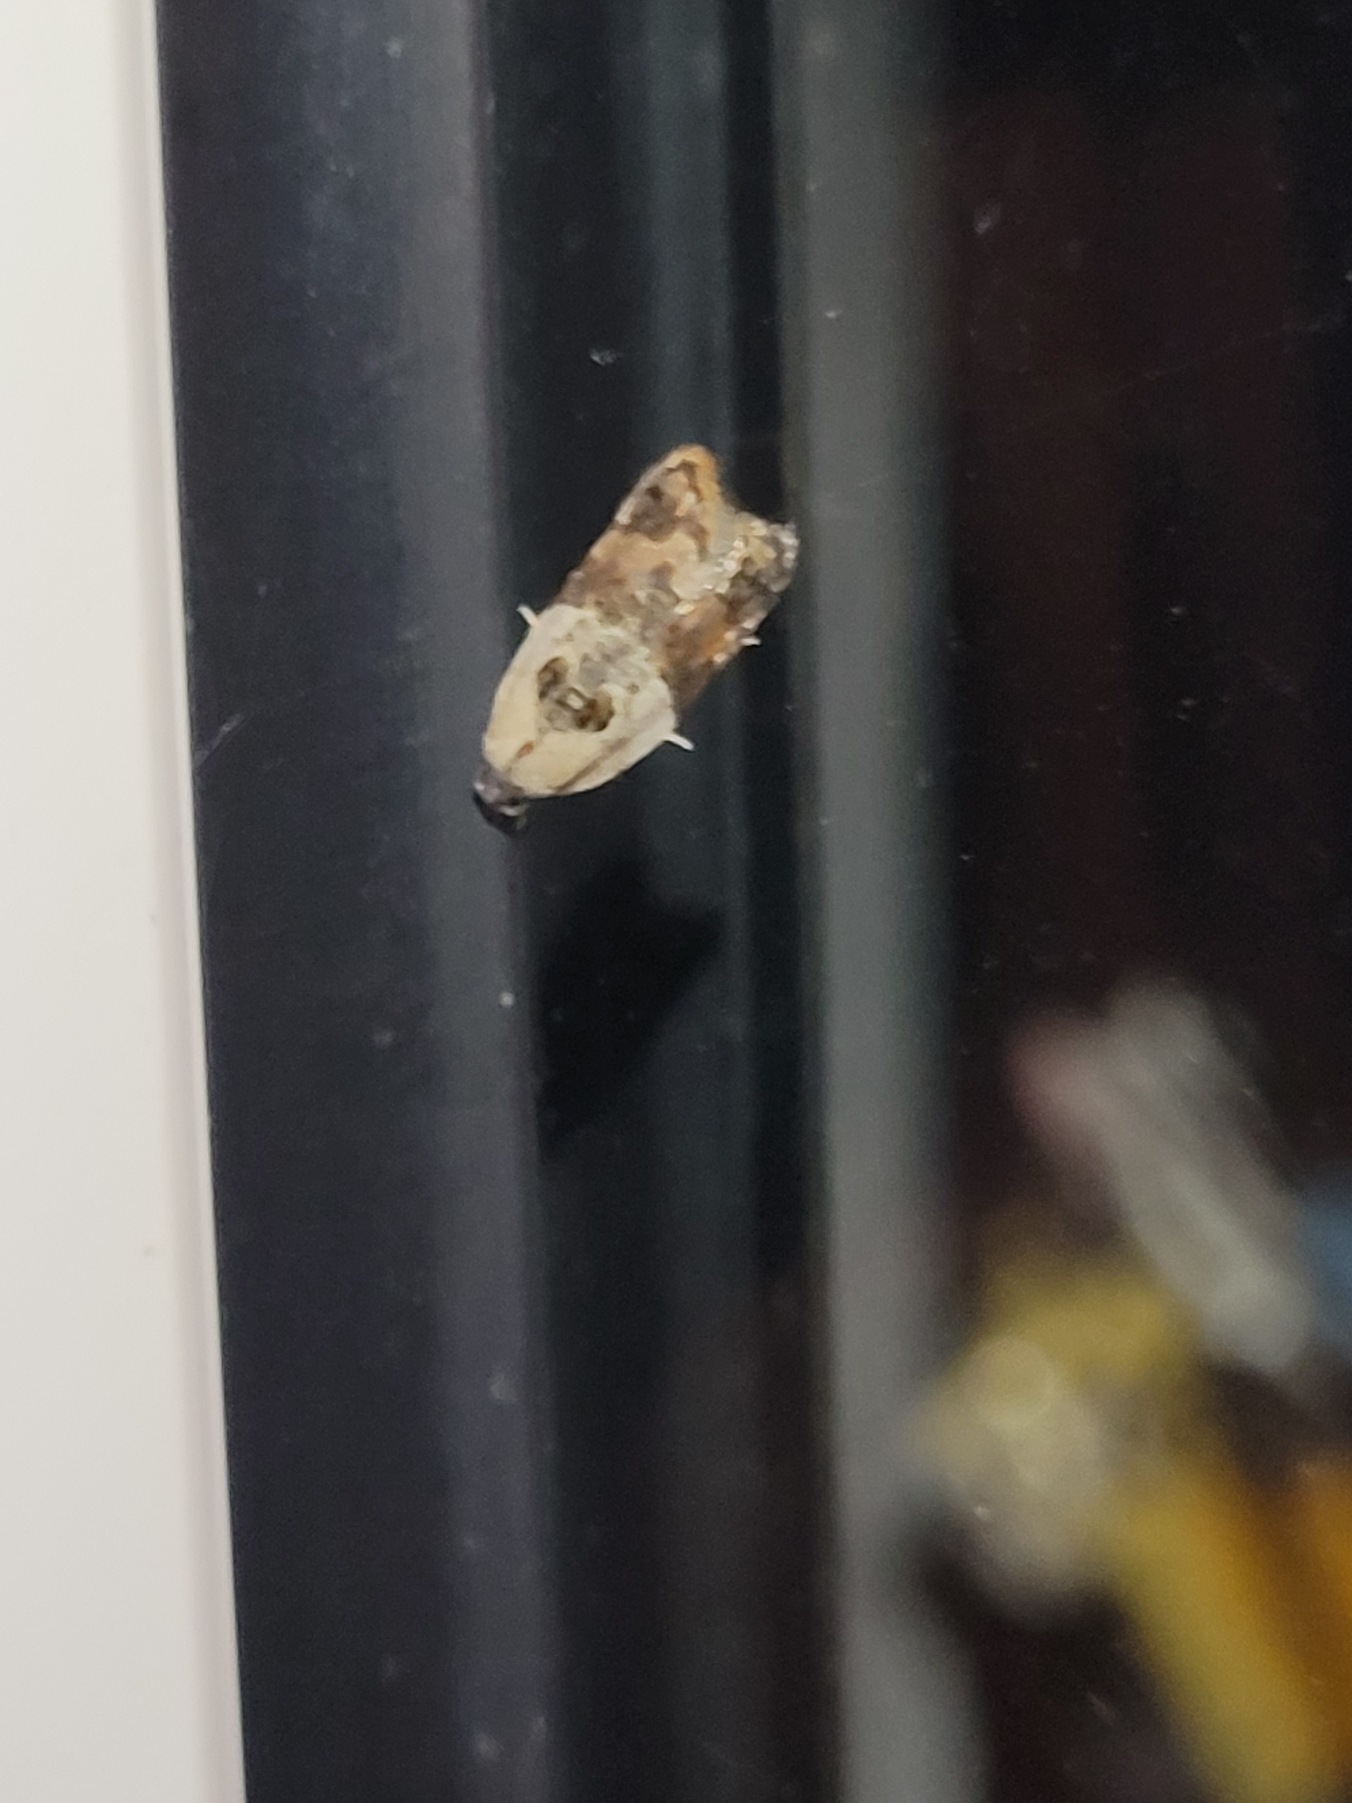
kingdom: Animalia
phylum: Arthropoda
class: Insecta
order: Lepidoptera
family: Tortricidae
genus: Acleris
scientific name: Acleris variegana
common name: Hvidbroget rosenvikler
